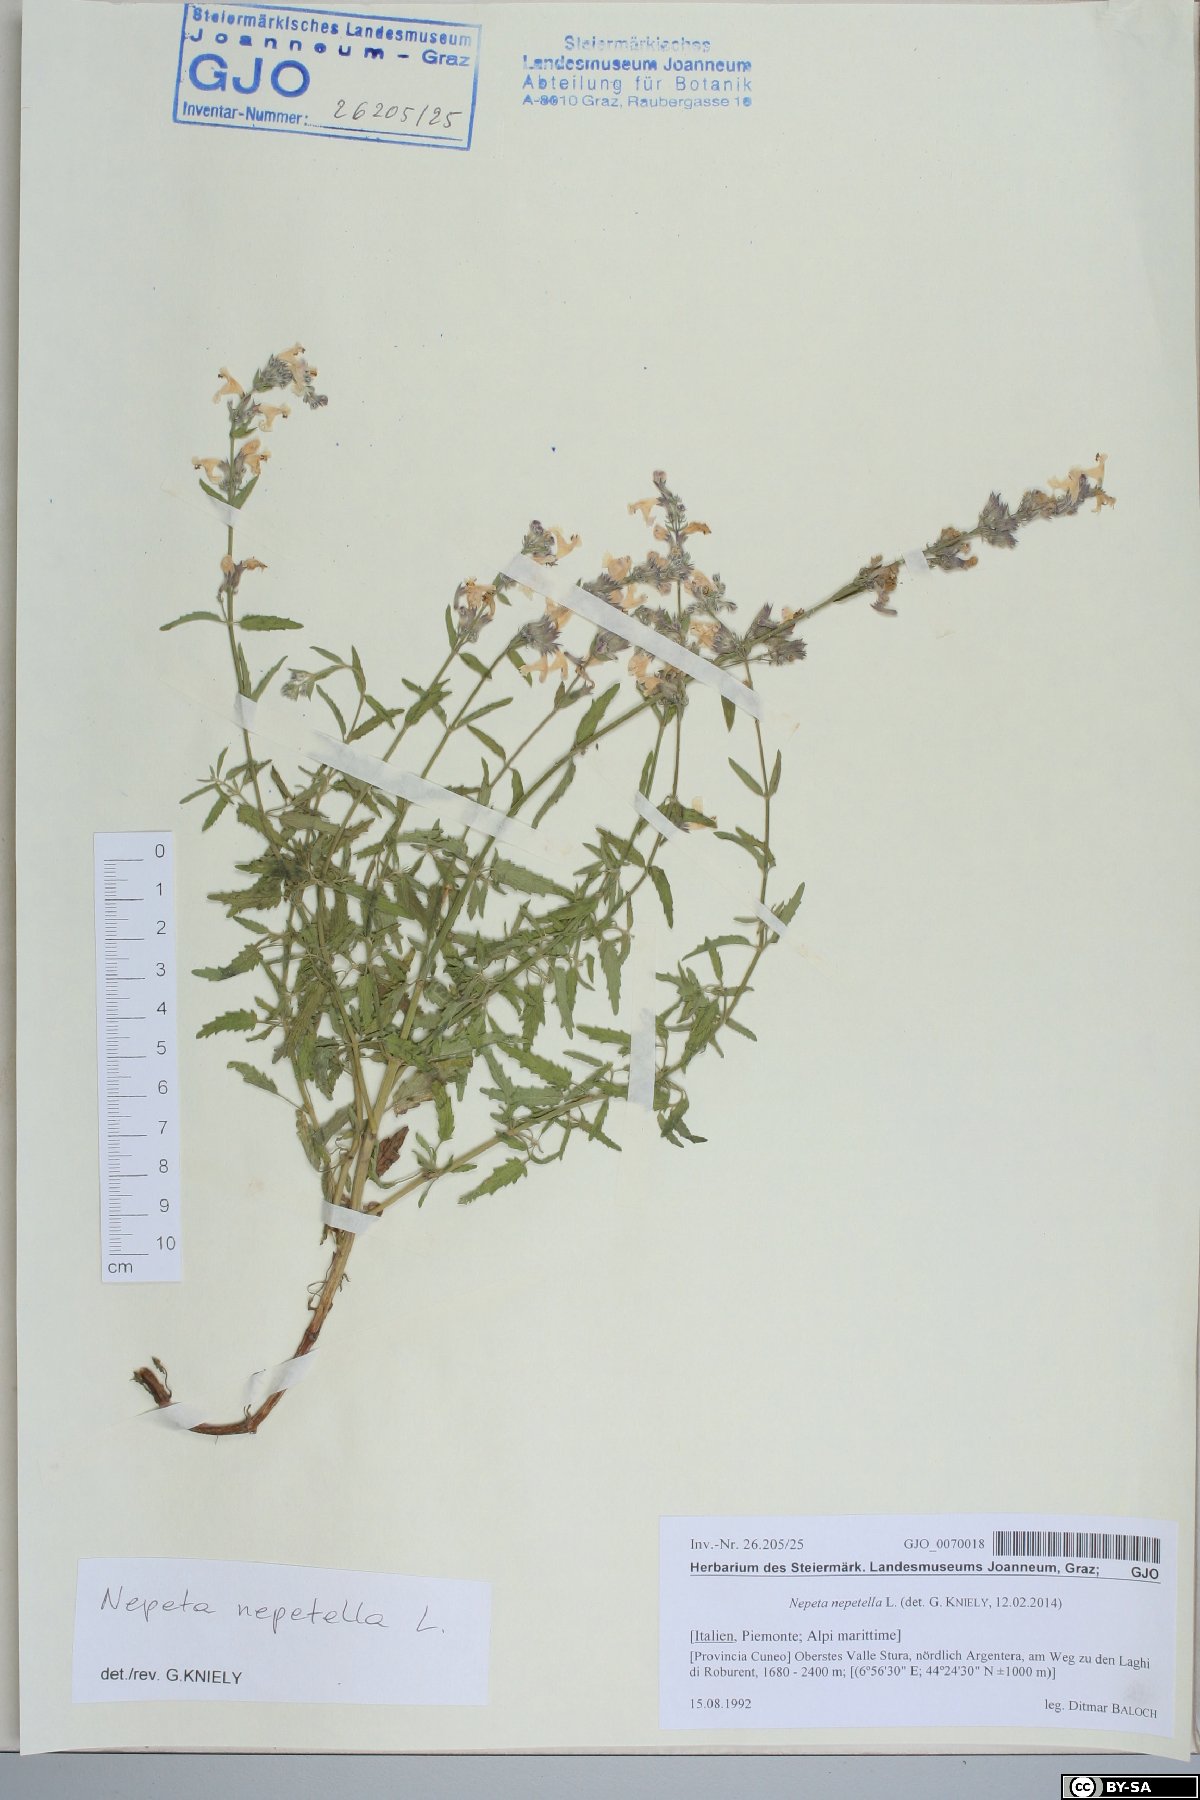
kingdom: Plantae
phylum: Tracheophyta
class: Magnoliopsida
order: Lamiales
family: Lamiaceae
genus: Nepeta
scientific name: Nepeta nepetella
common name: Lesser catmint
